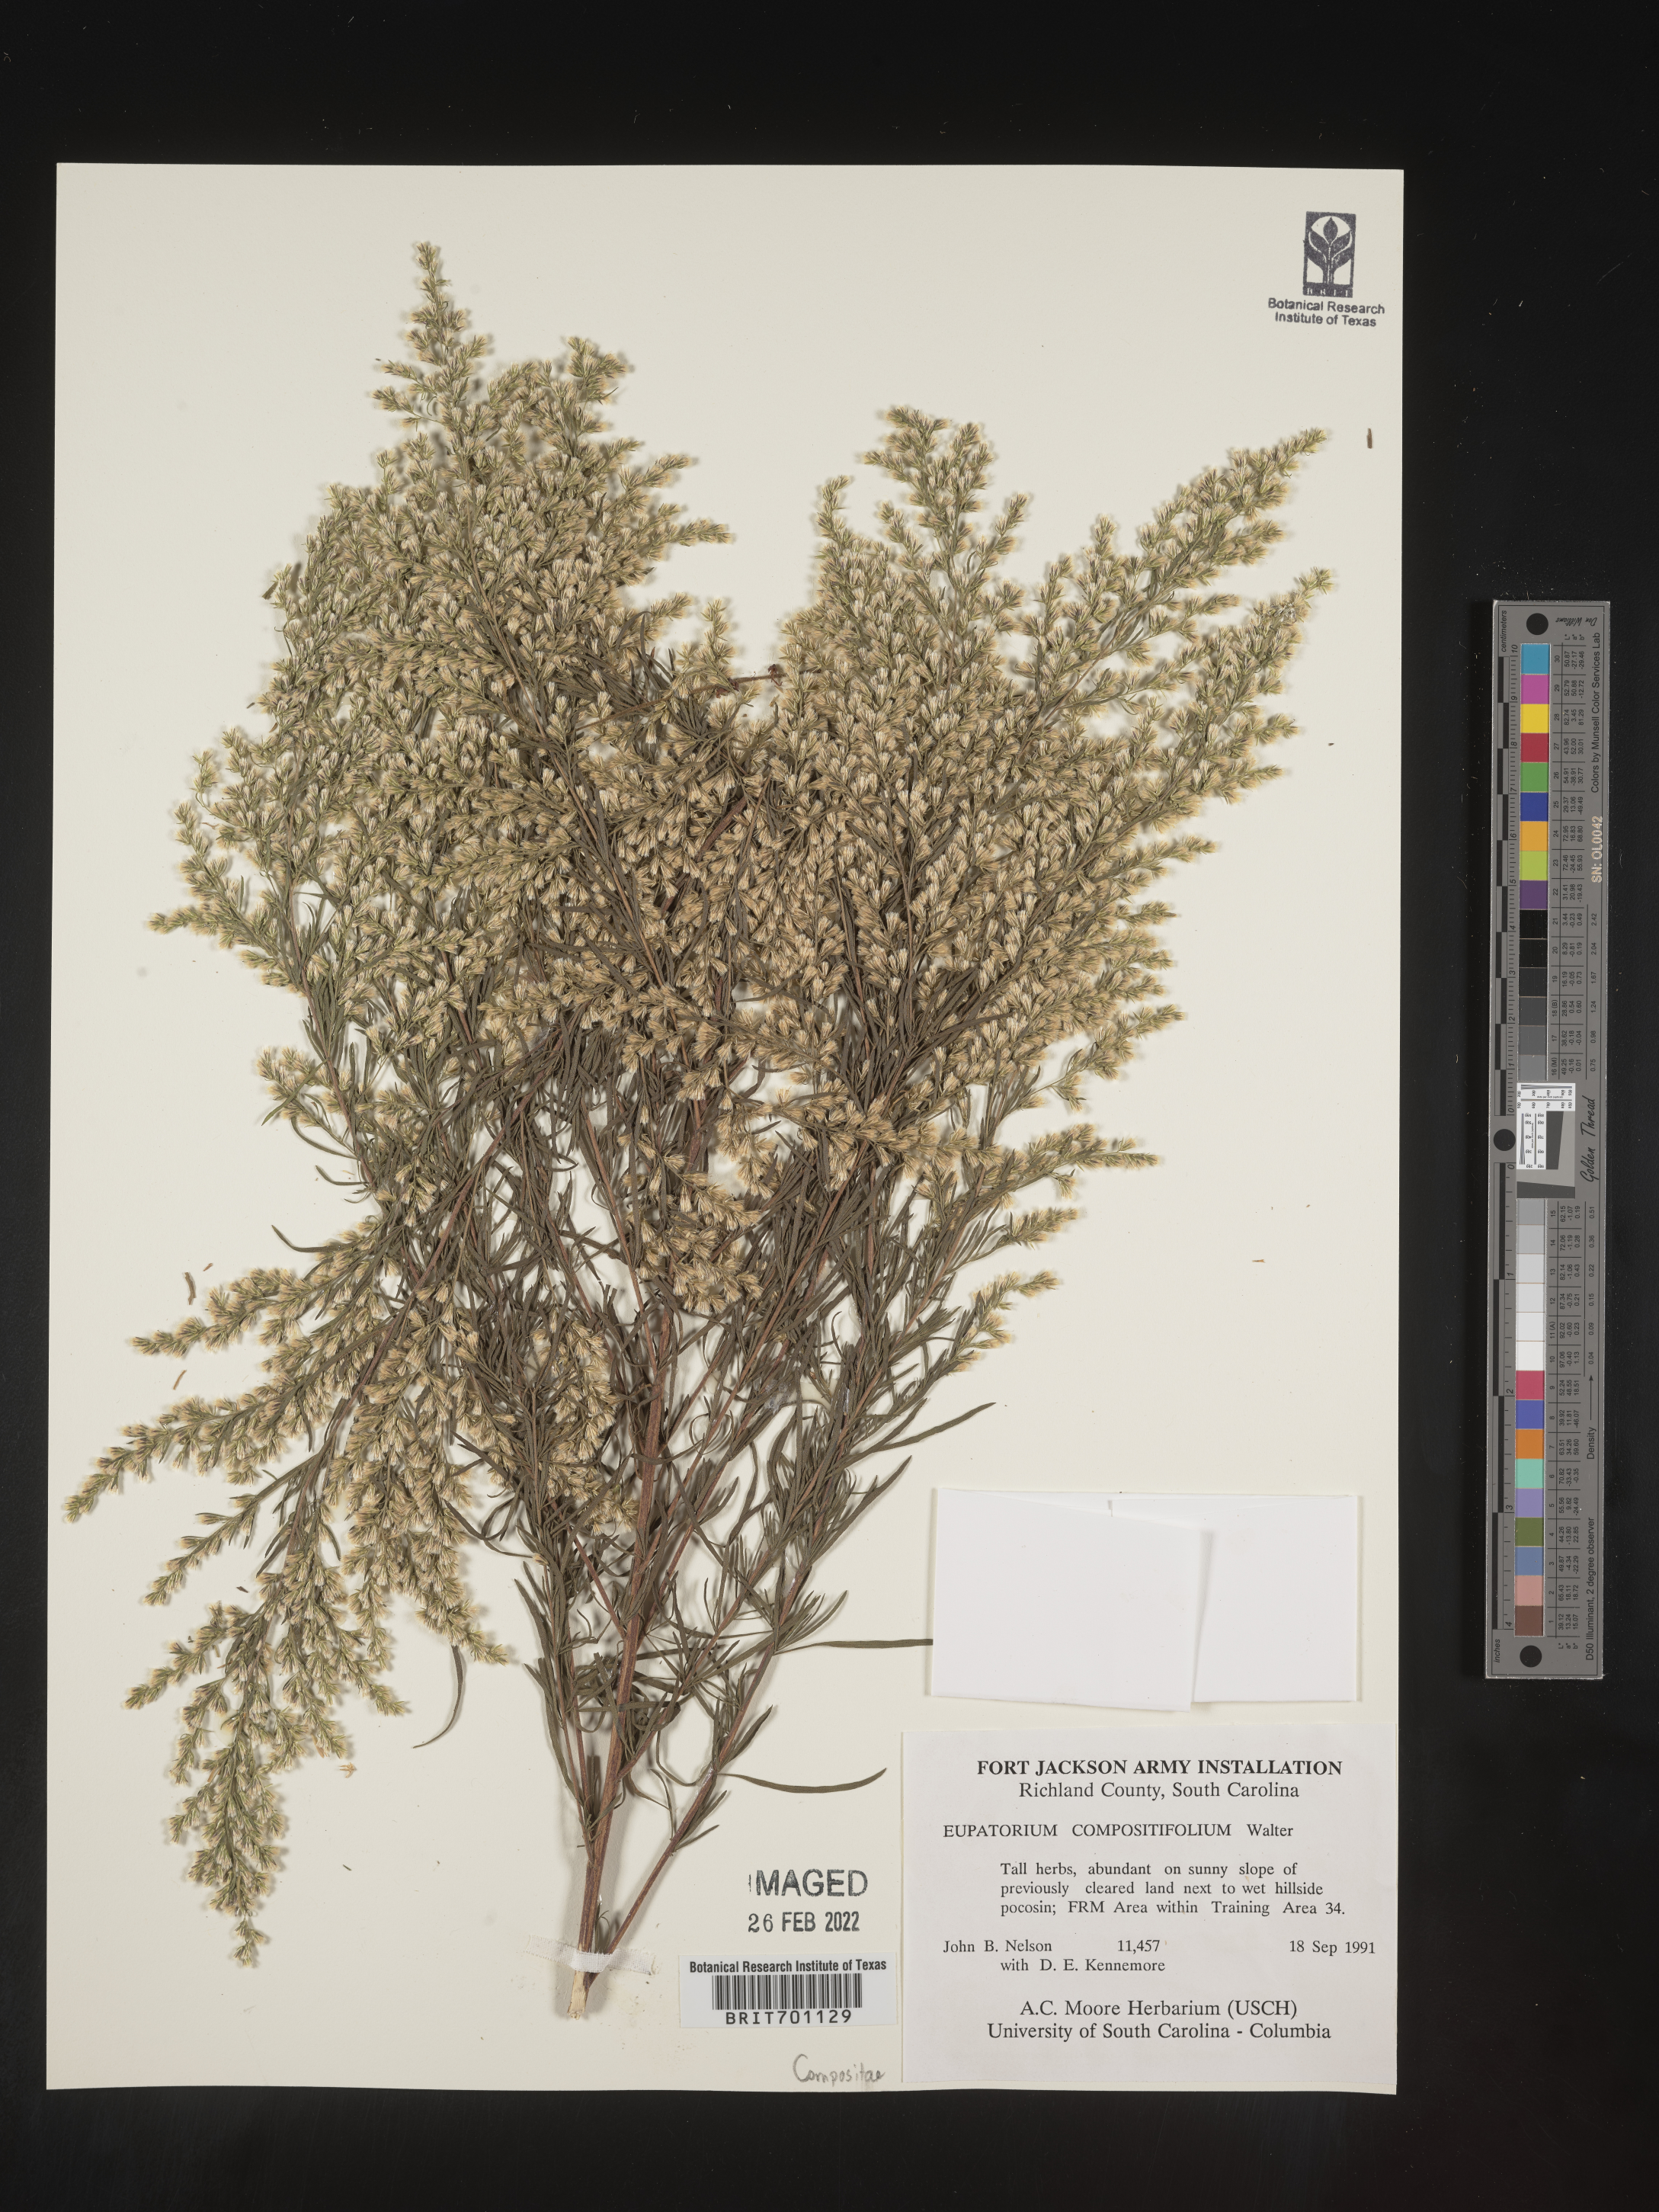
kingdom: Plantae
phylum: Tracheophyta
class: Magnoliopsida
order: Asterales
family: Asteraceae
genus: Eupatorium
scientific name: Eupatorium compositifolium
